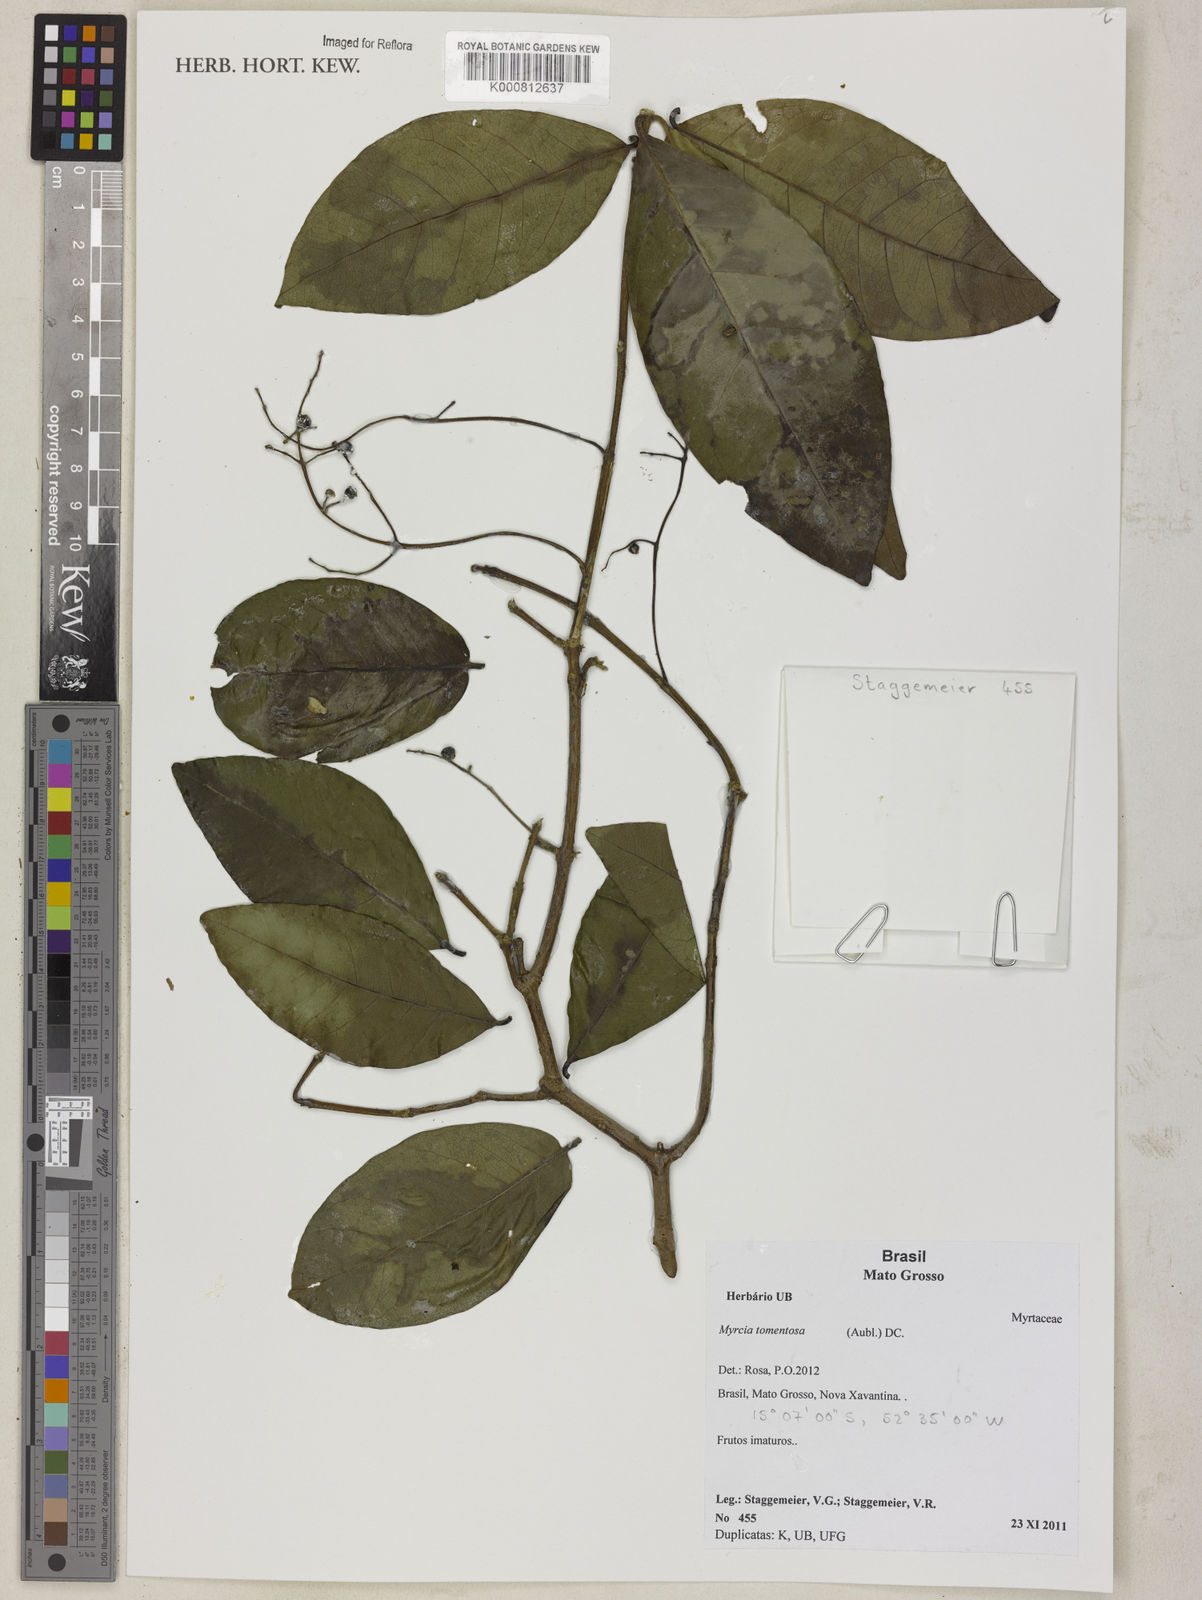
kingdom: Plantae
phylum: Tracheophyta
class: Magnoliopsida
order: Myrtales
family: Myrtaceae
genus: Myrcia
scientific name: Myrcia tomentosa
